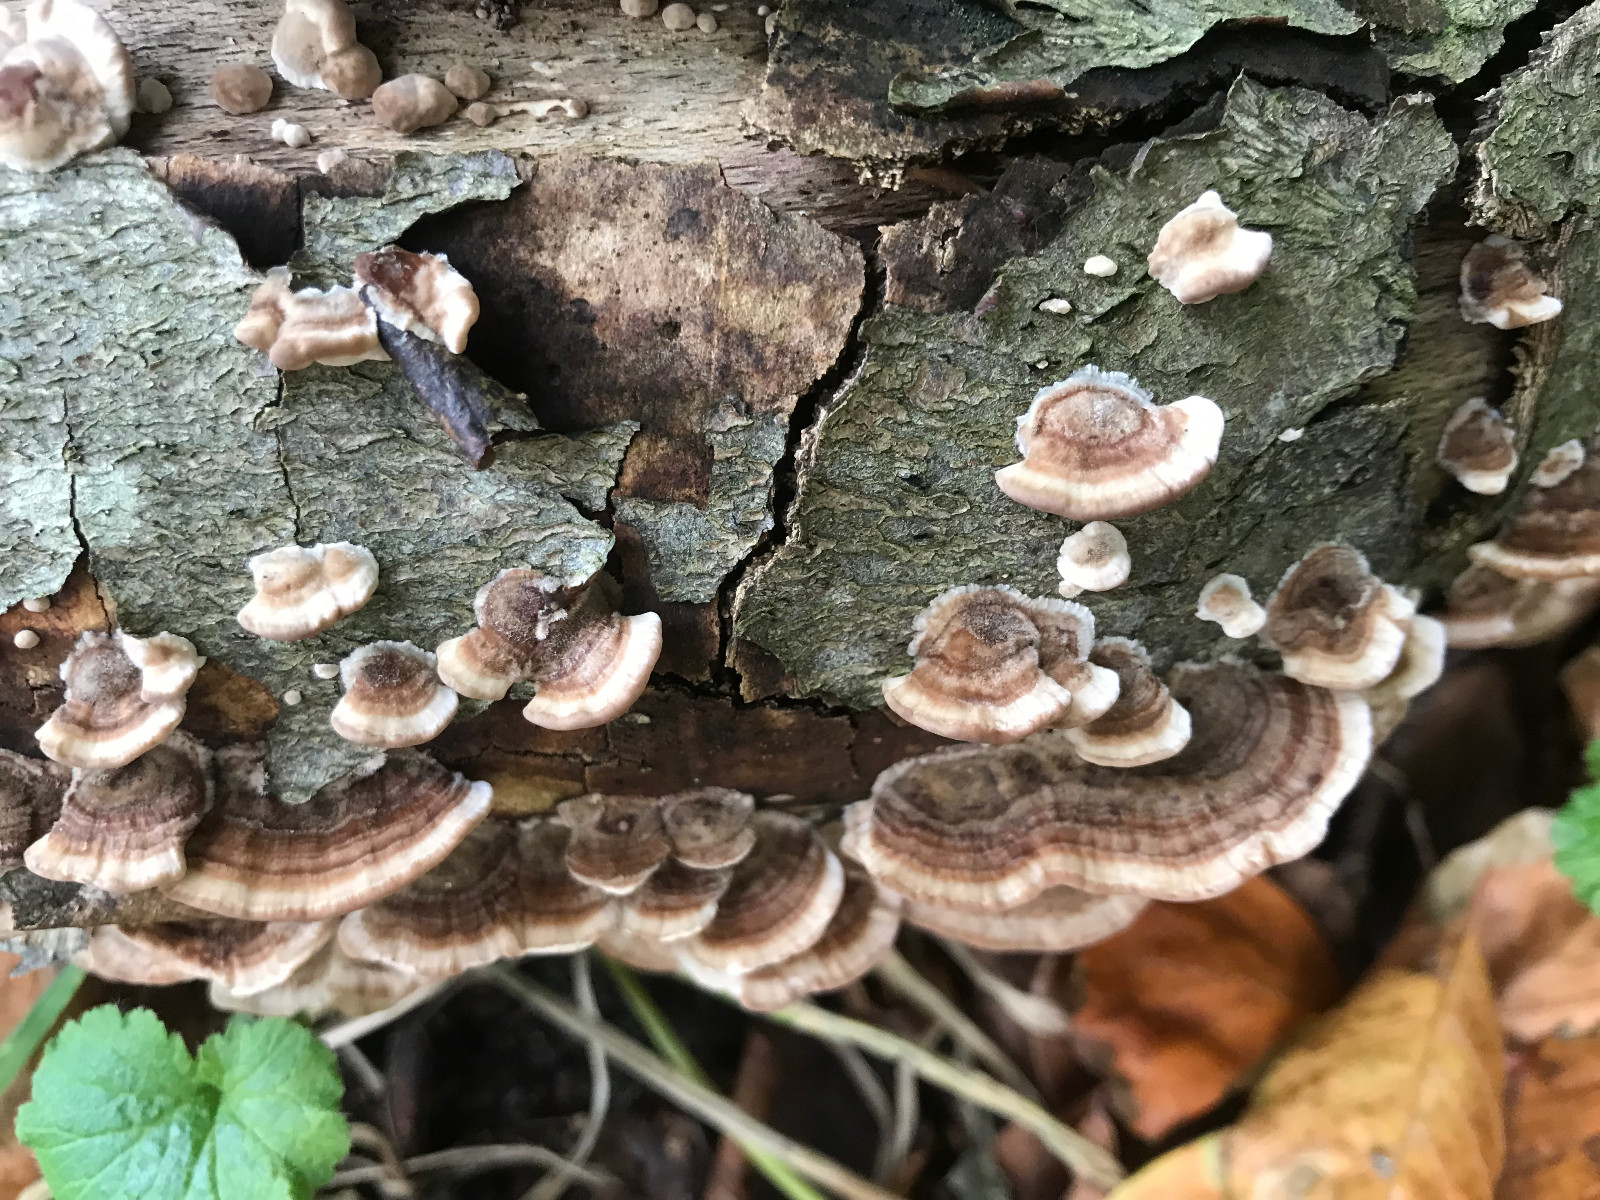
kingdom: Fungi
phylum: Basidiomycota
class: Agaricomycetes
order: Polyporales
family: Polyporaceae
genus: Trametes
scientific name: Trametes versicolor
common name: broget læderporesvamp
